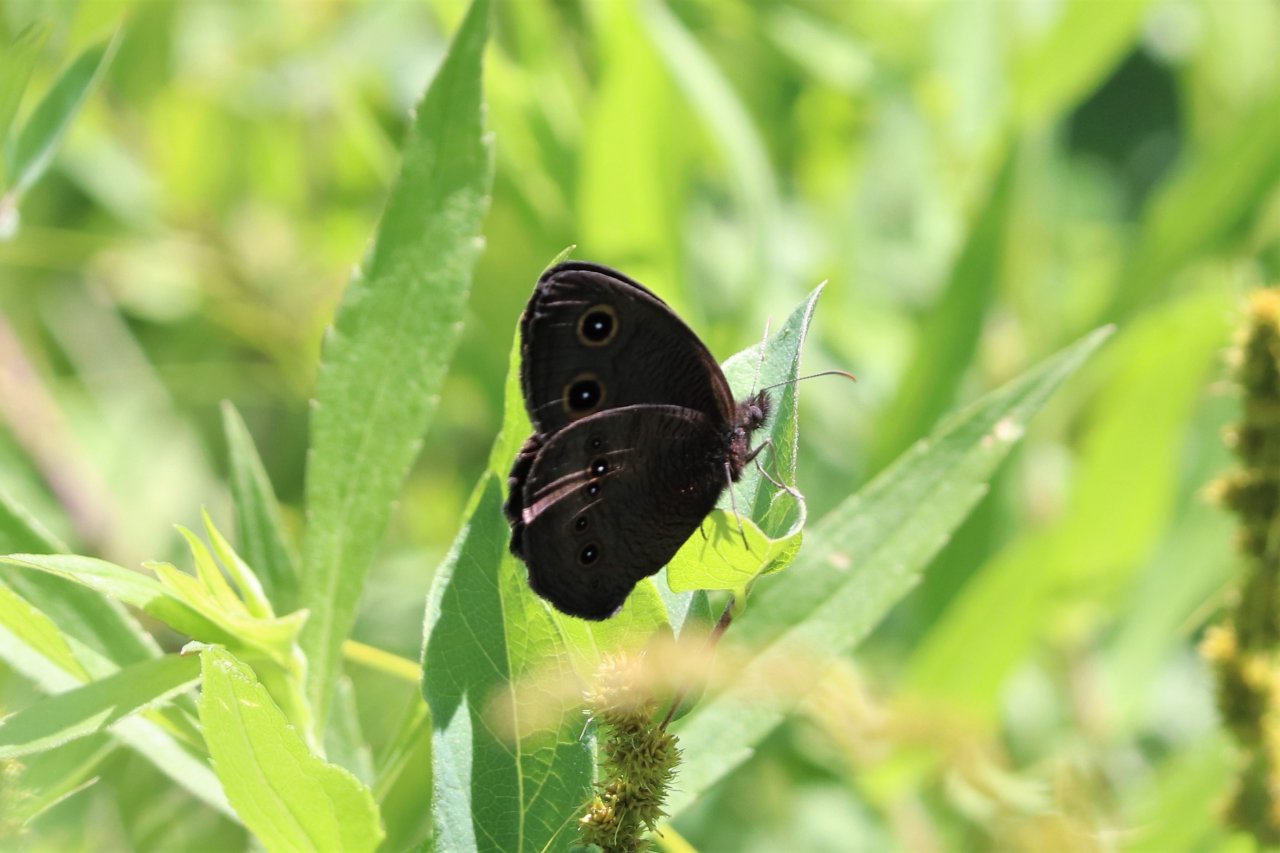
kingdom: Animalia
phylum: Arthropoda
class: Insecta
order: Lepidoptera
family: Nymphalidae
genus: Cercyonis
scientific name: Cercyonis pegala
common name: Common Wood-Nymph
